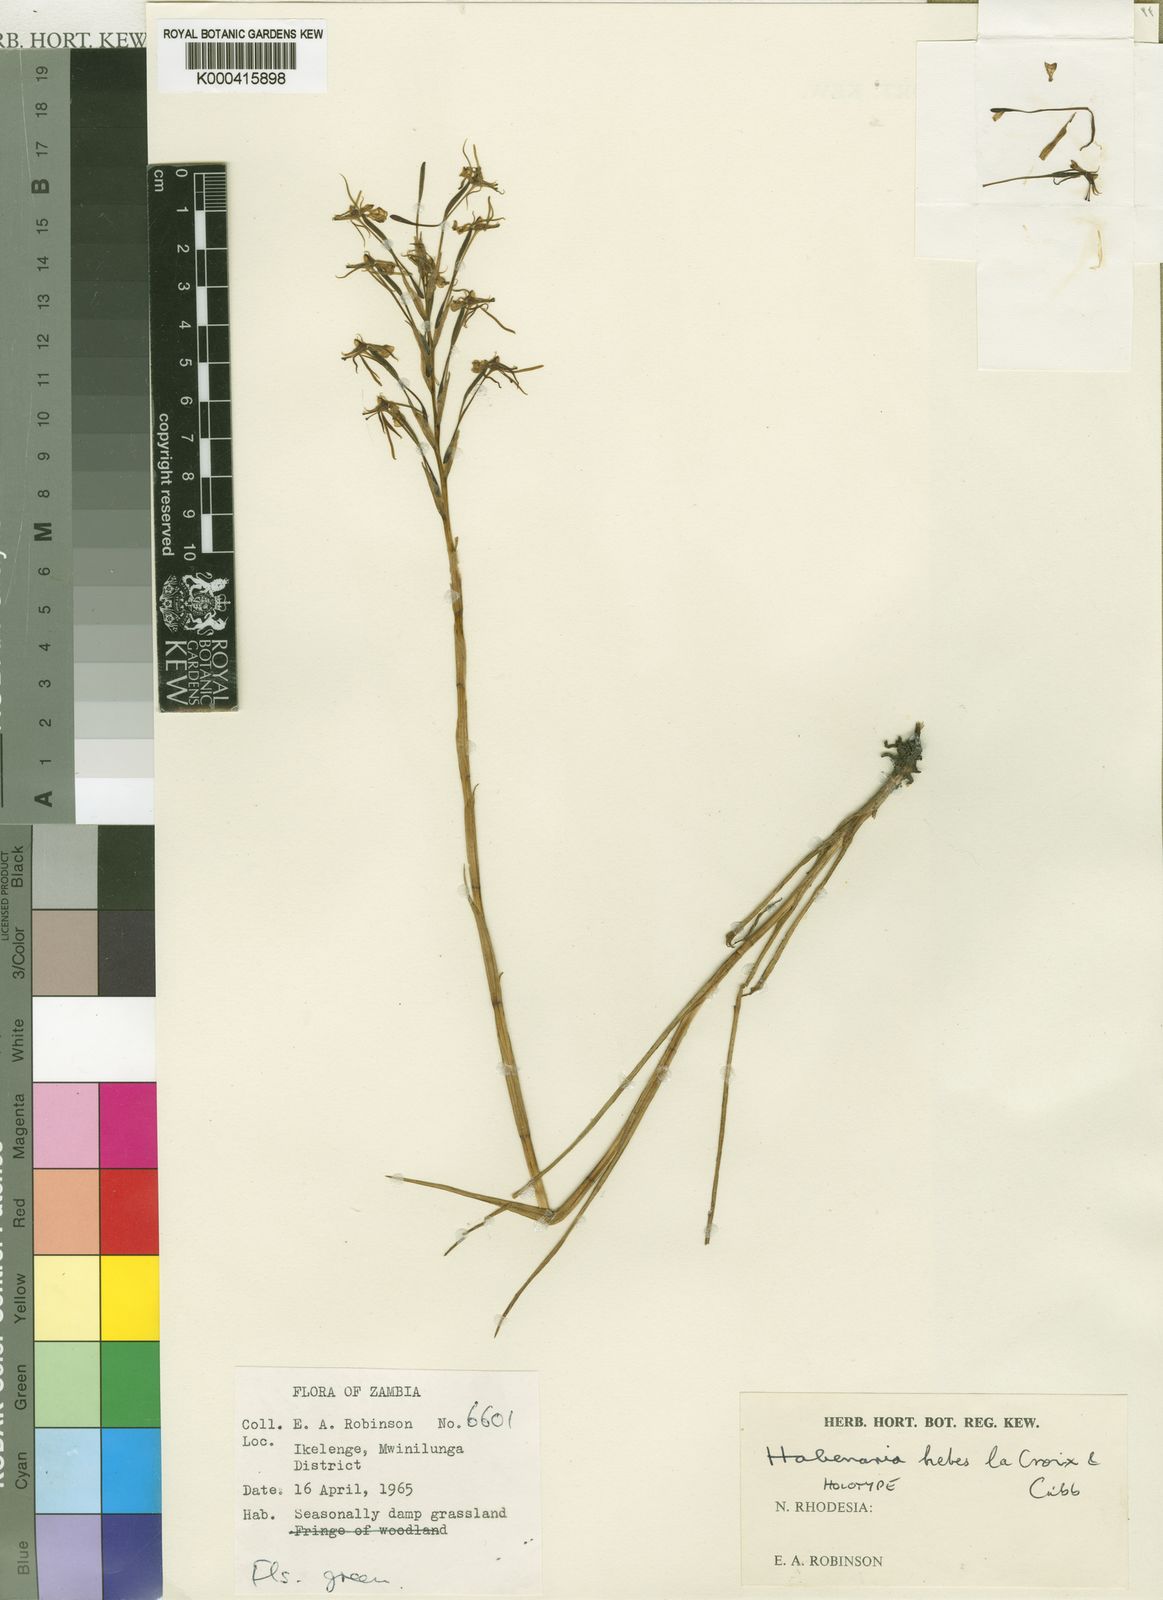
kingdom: Plantae
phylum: Tracheophyta
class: Liliopsida
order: Asparagales
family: Orchidaceae
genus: Habenaria
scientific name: Habenaria hebes
